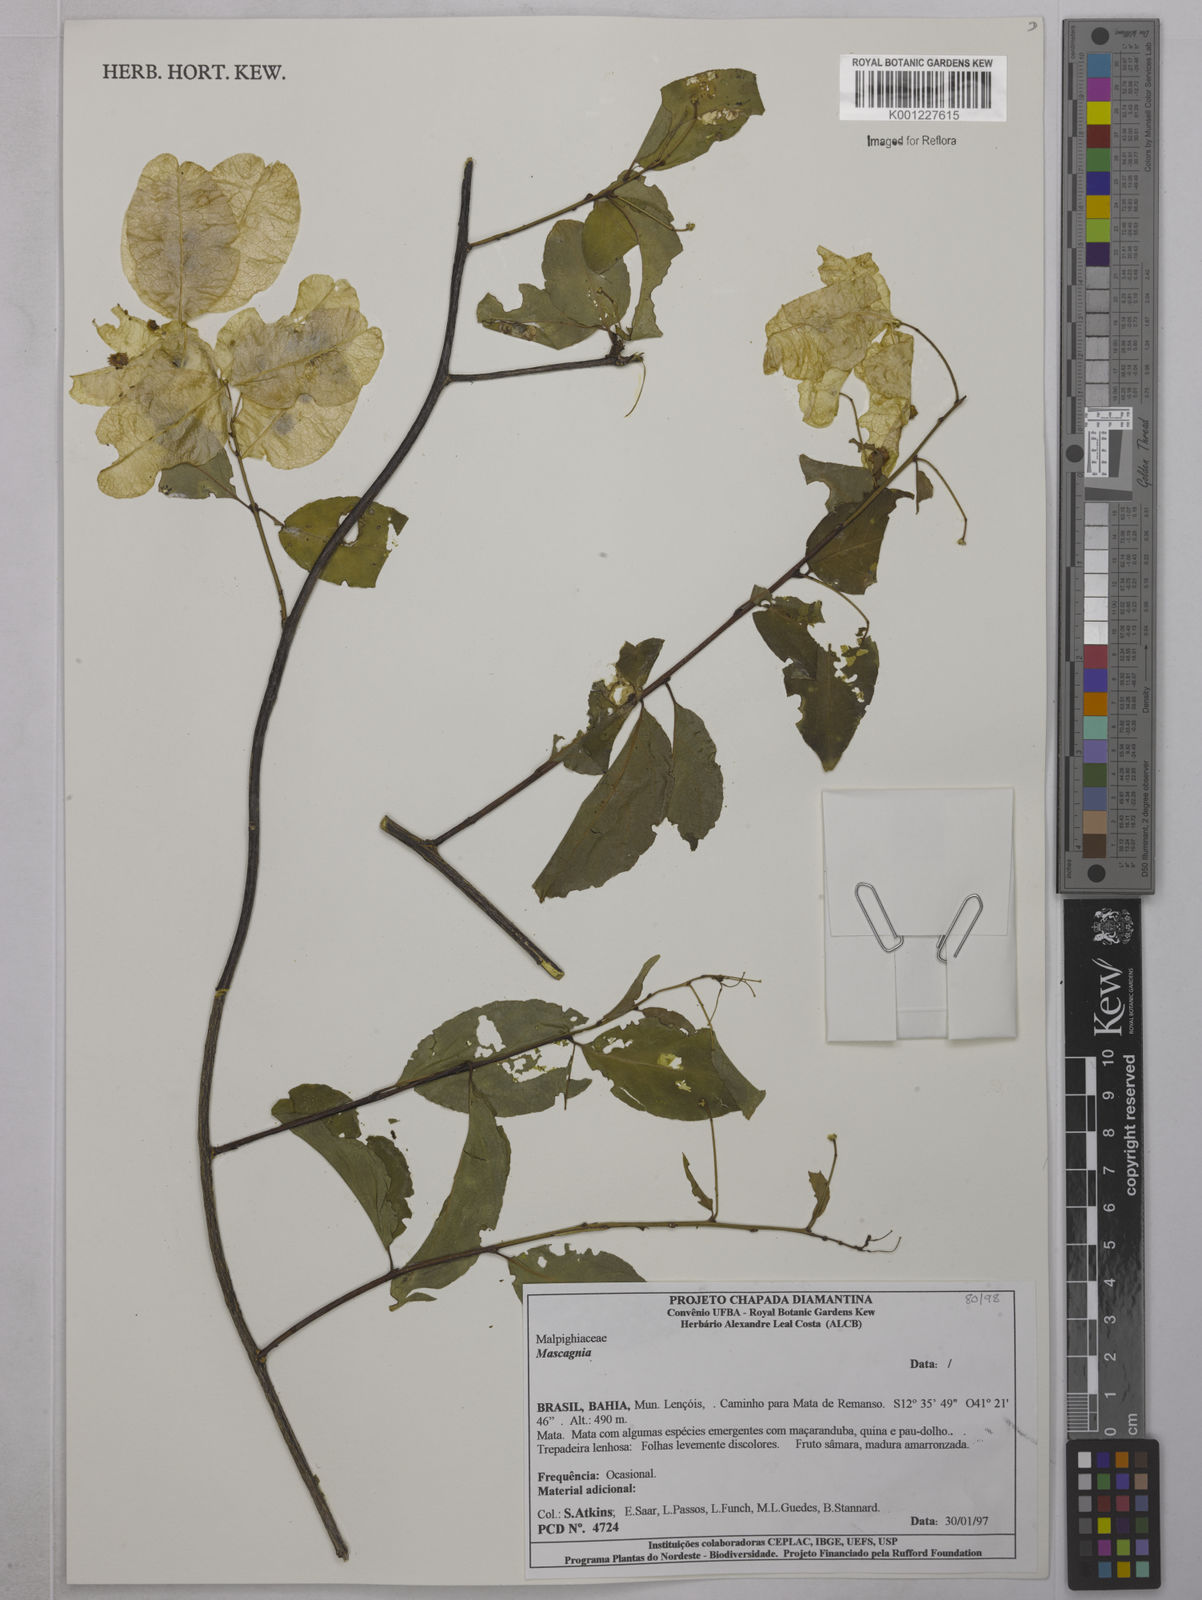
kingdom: Plantae
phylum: Tracheophyta
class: Magnoliopsida
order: Malpighiales
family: Malpighiaceae
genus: Mascagnia
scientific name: Mascagnia
